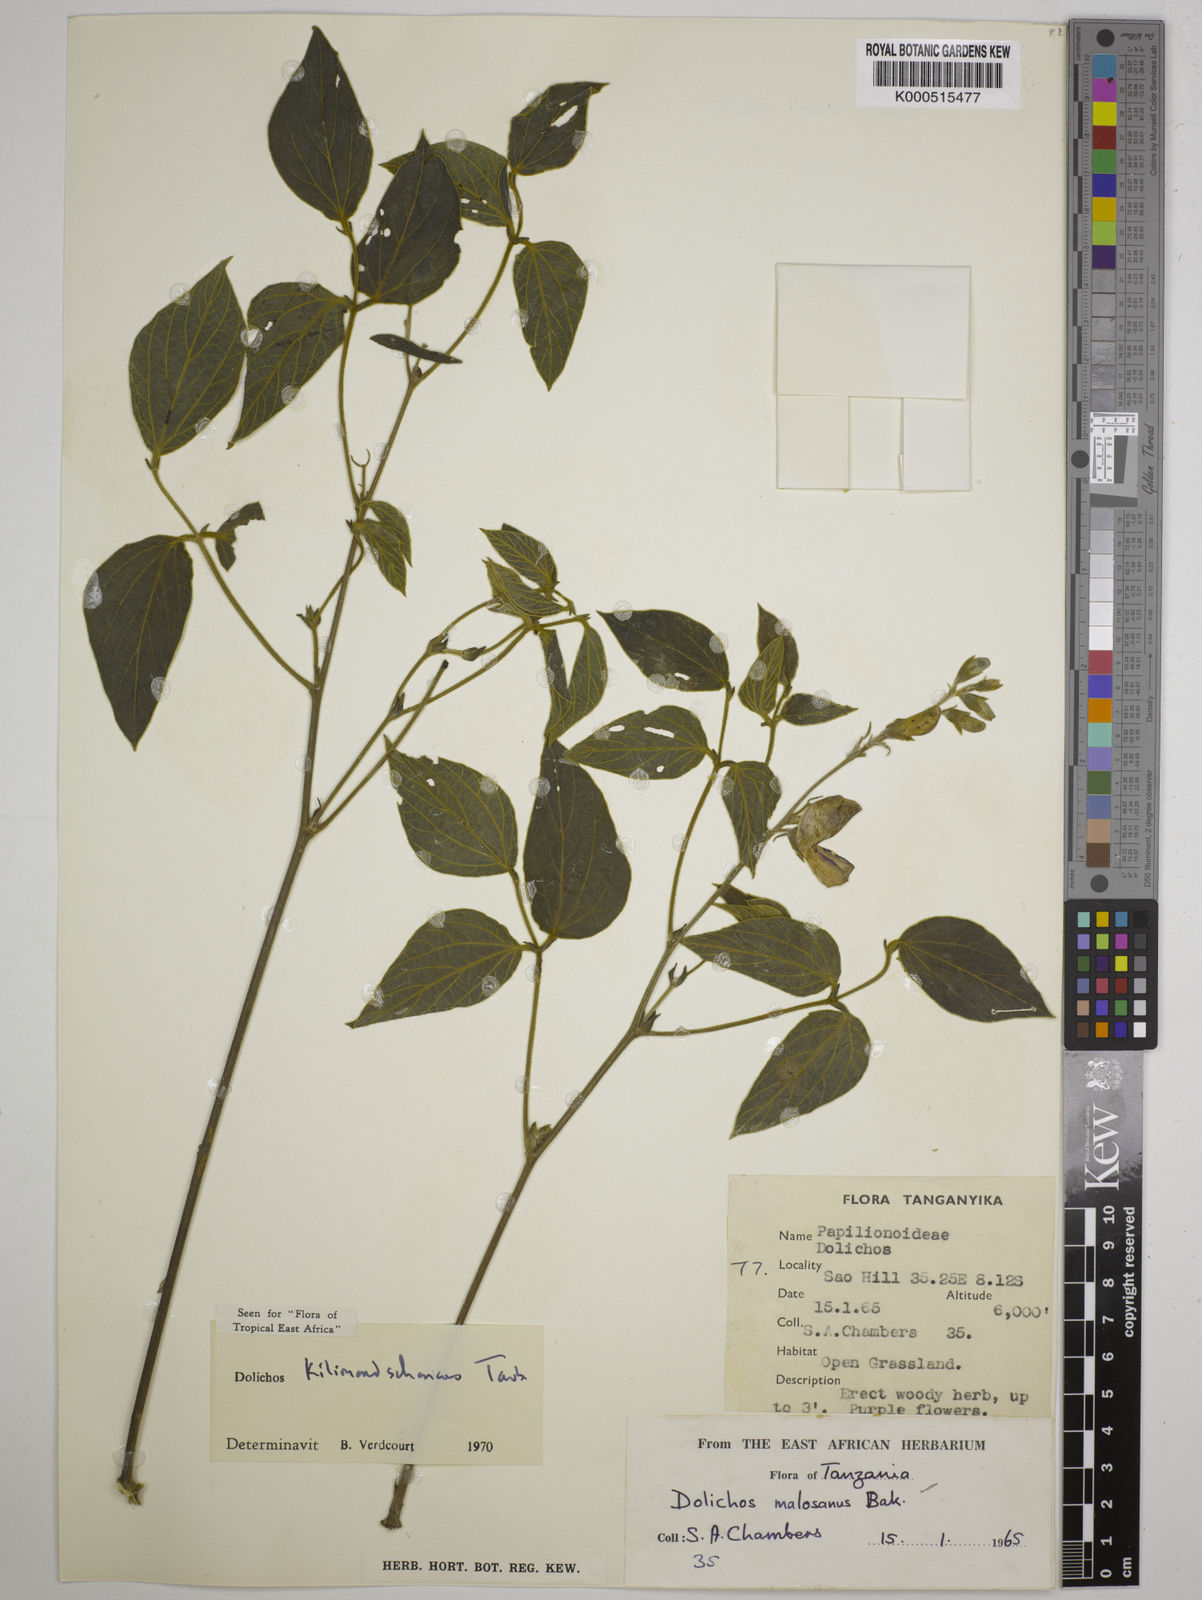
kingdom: Plantae
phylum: Tracheophyta
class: Magnoliopsida
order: Fabales
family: Fabaceae
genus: Dolichos
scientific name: Dolichos kilimandscharicus
